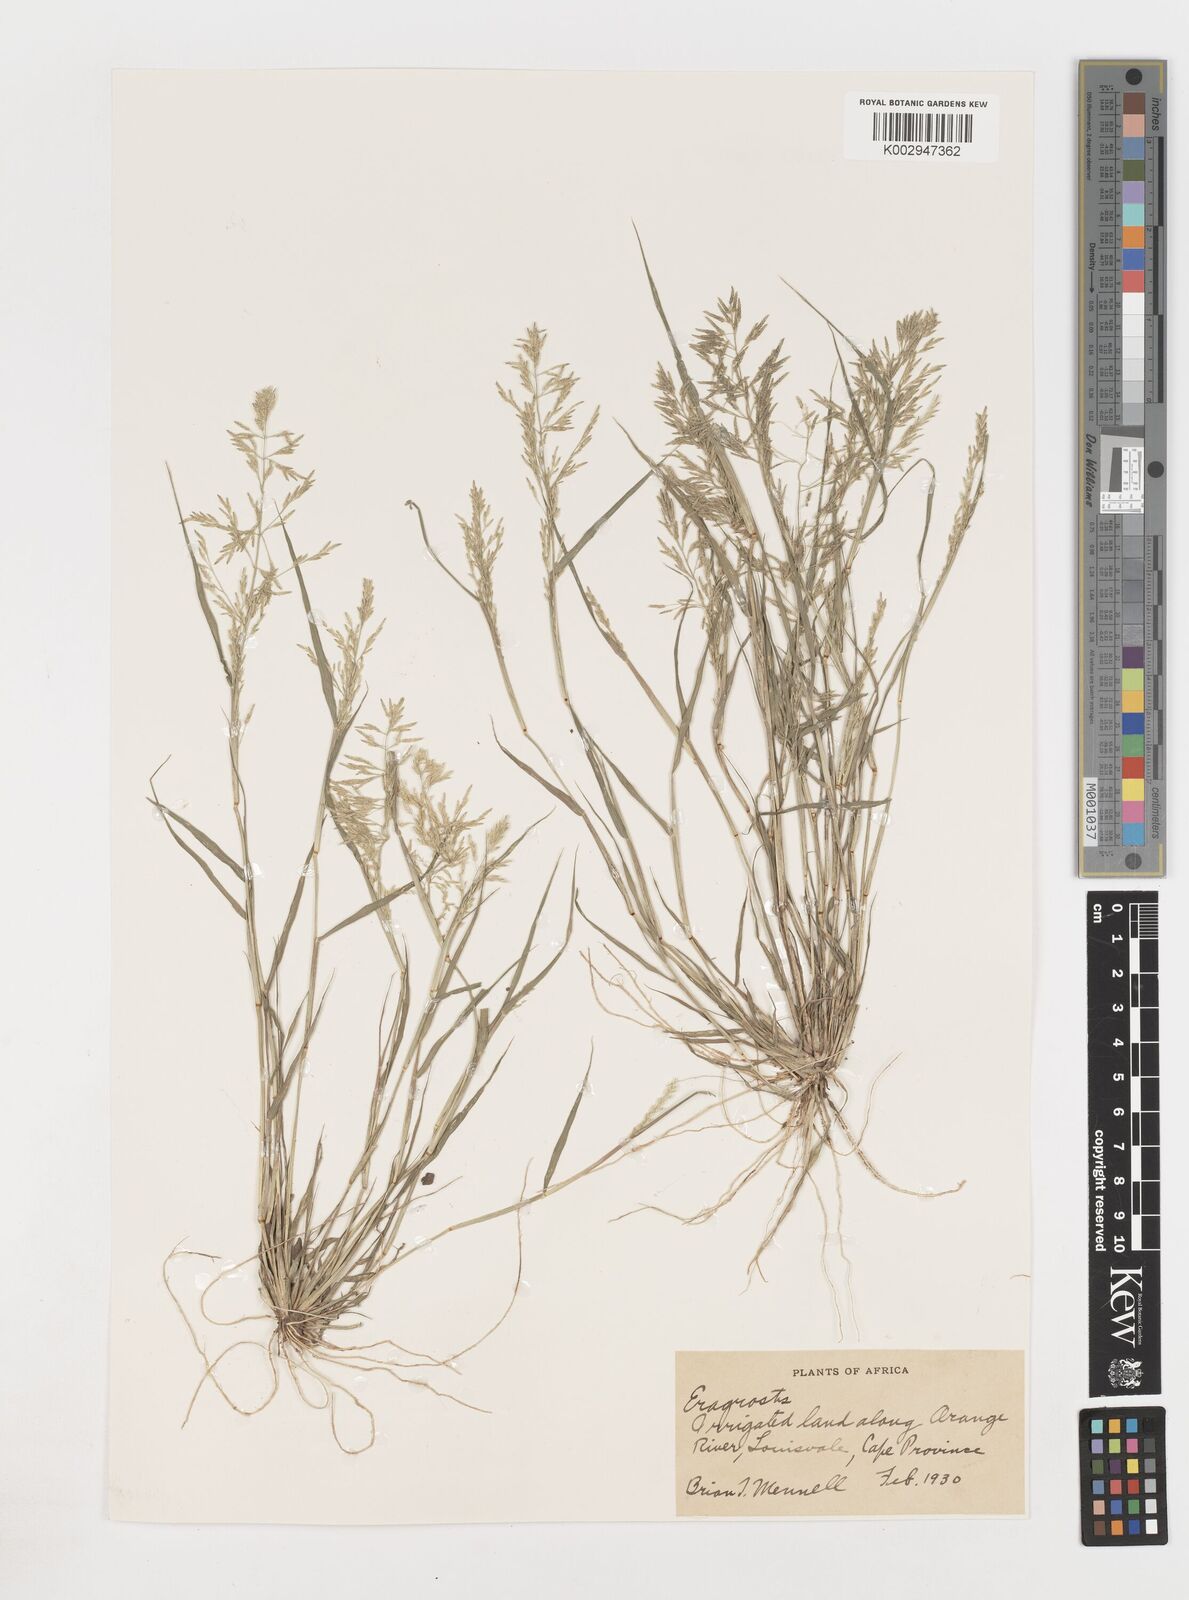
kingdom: Plantae
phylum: Tracheophyta
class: Liliopsida
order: Poales
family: Poaceae
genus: Eragrostis
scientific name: Eragrostis
